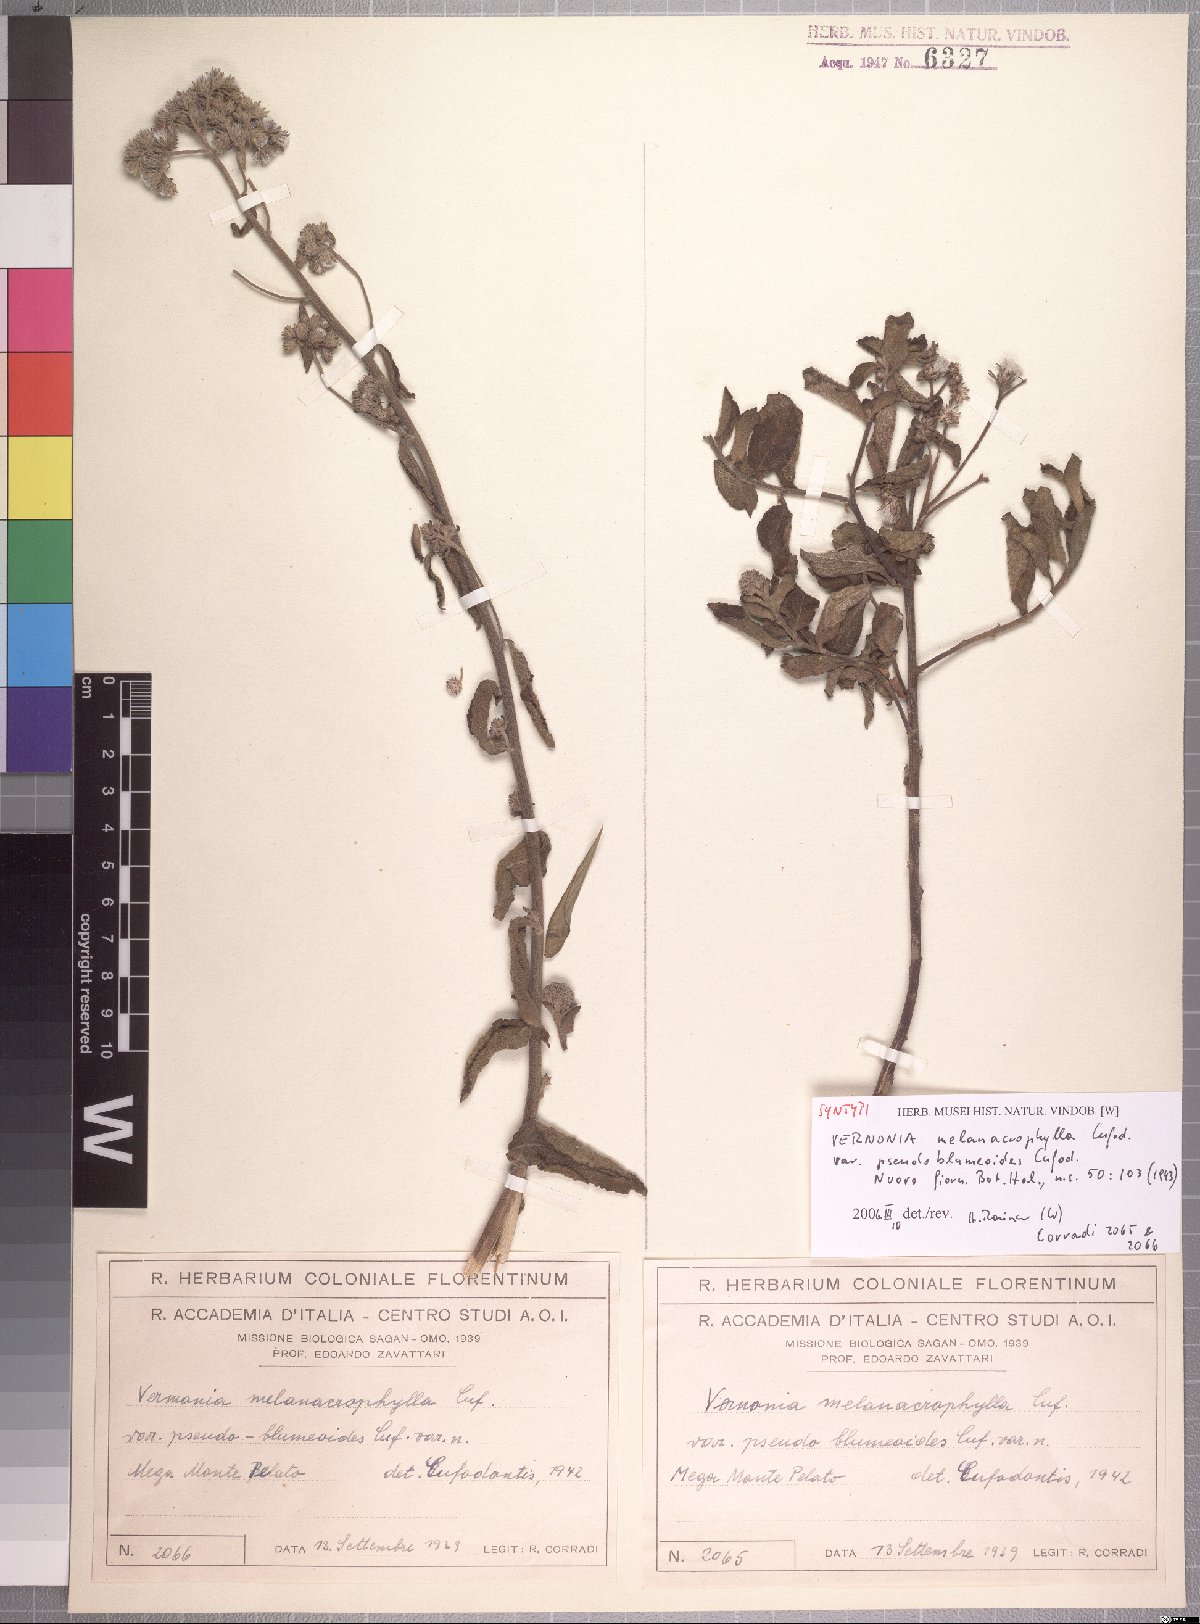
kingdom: Plantae
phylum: Tracheophyta
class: Magnoliopsida
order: Asterales
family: Asteraceae
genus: Orbivestus
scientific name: Orbivestus karaguensis
